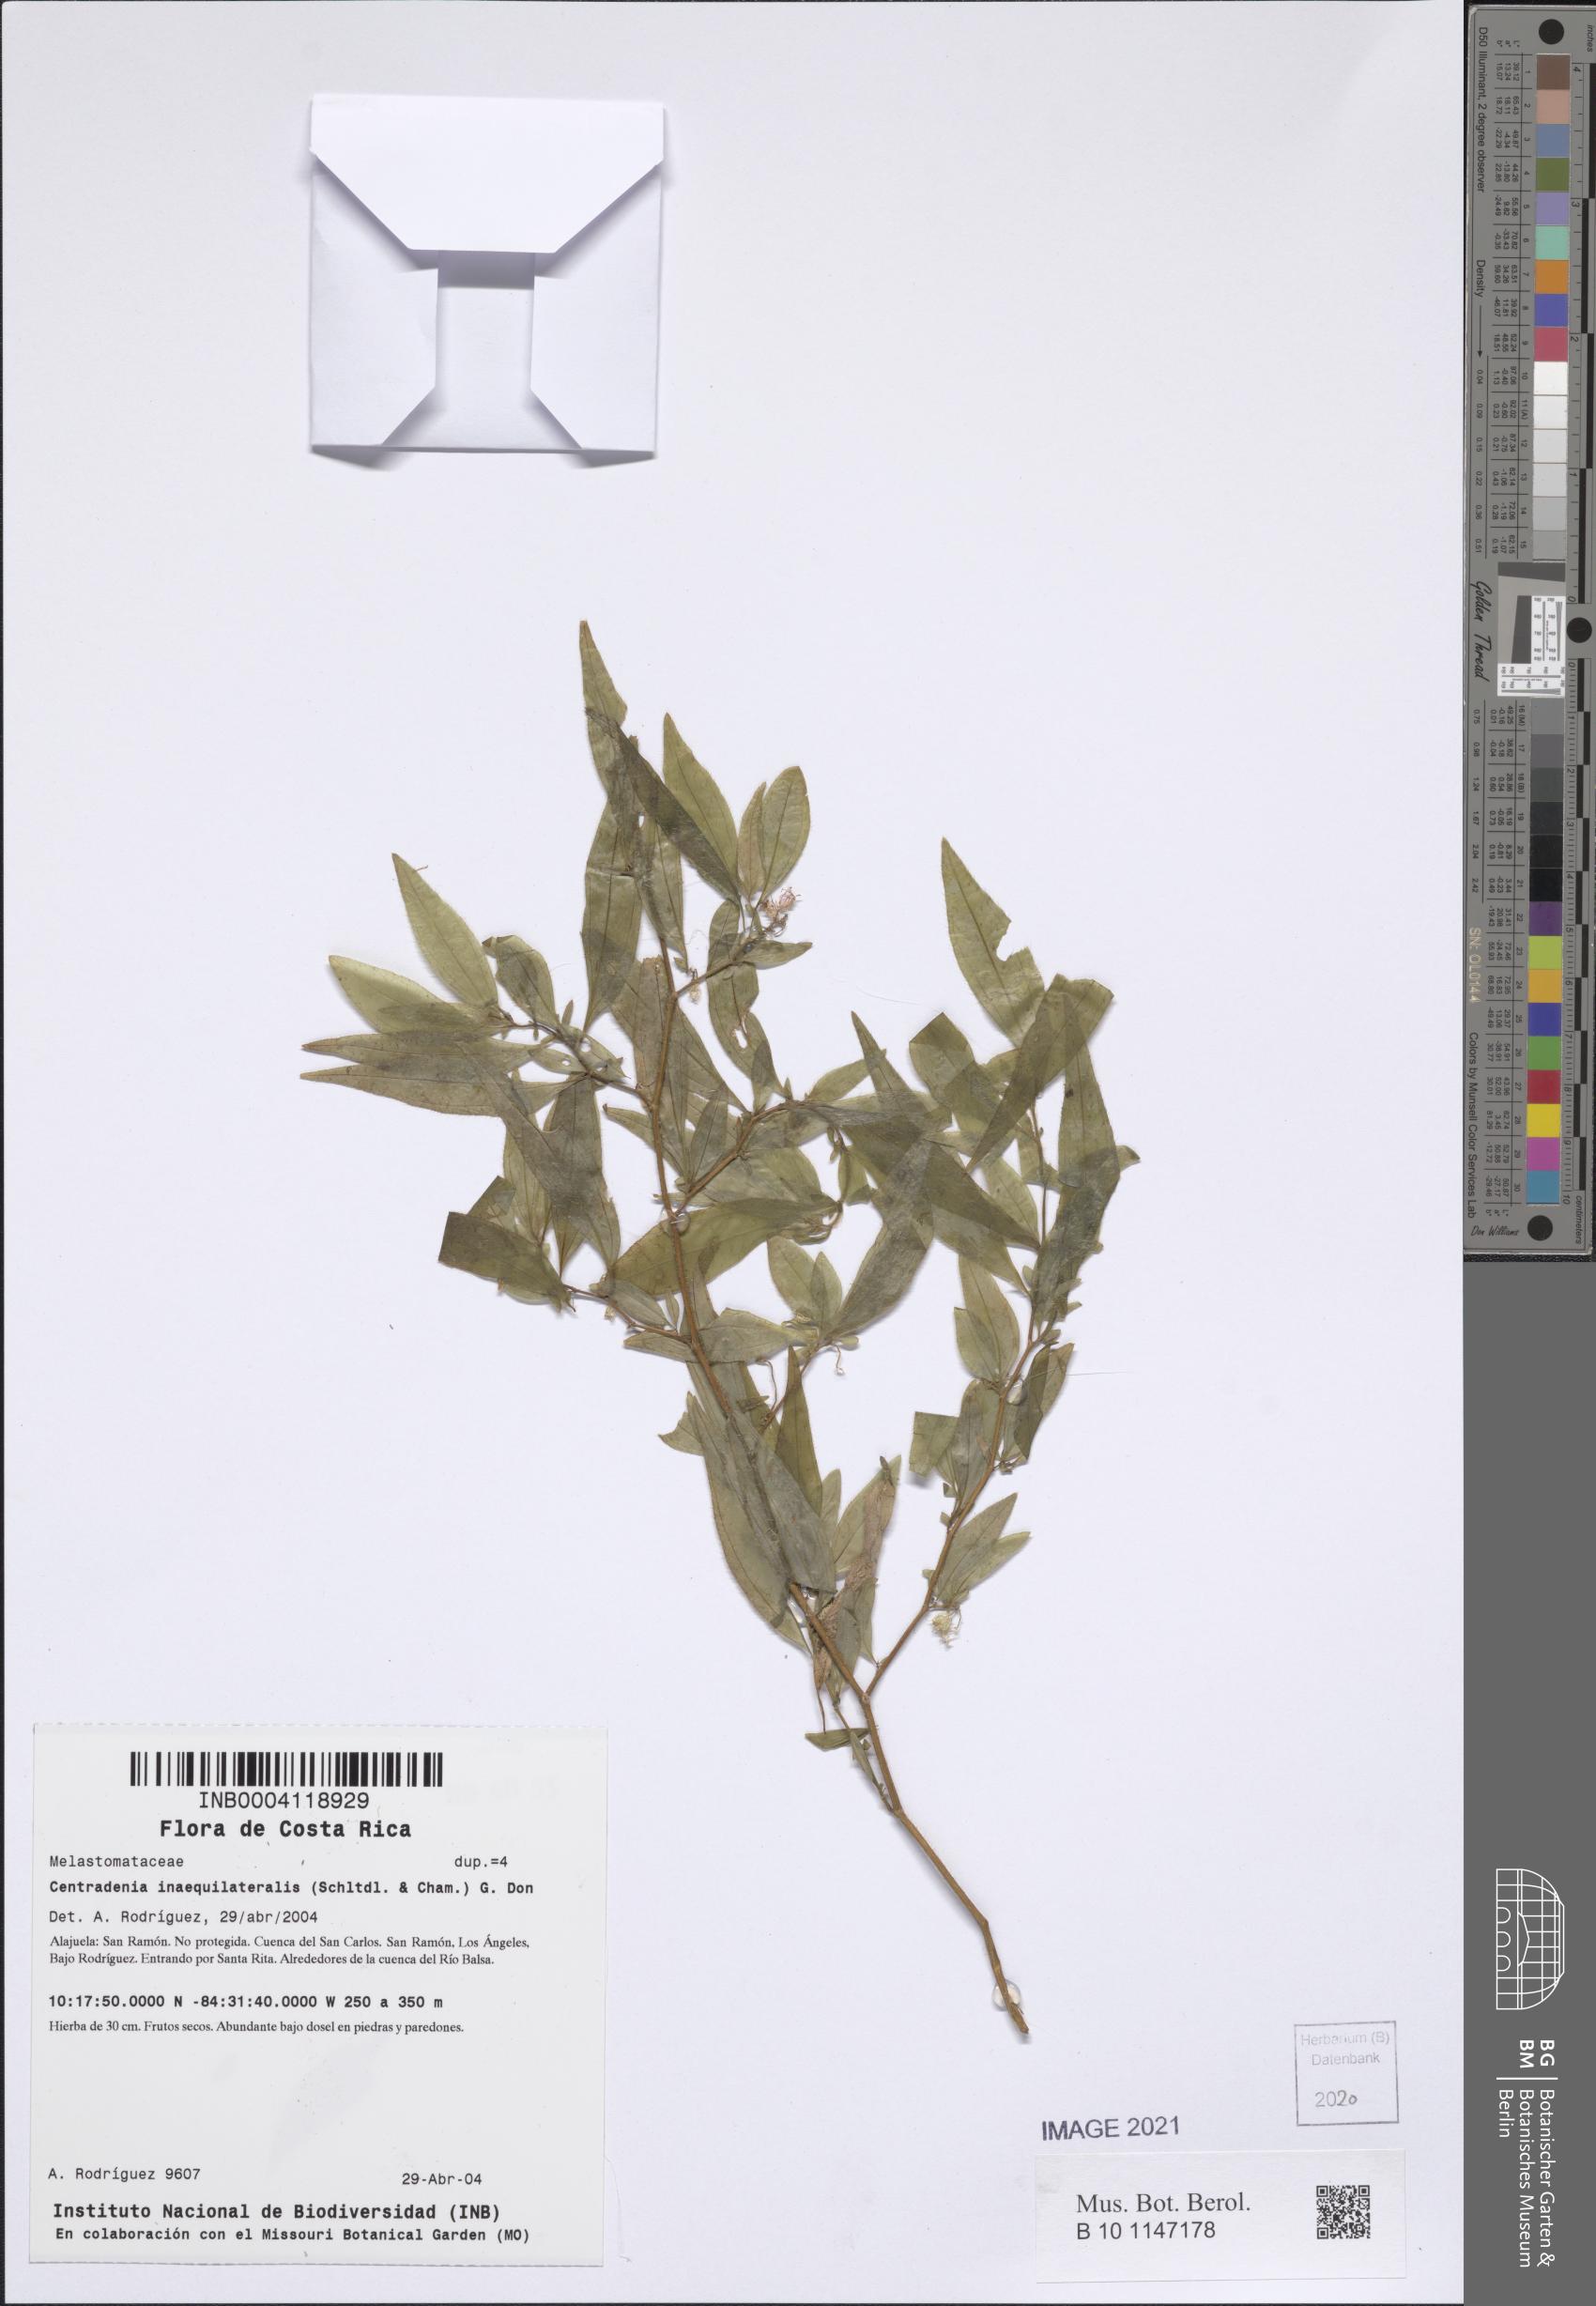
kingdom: Plantae
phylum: Tracheophyta
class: Magnoliopsida
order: Myrtales
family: Melastomataceae
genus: Centradenia
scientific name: Centradenia inaequilateralis
